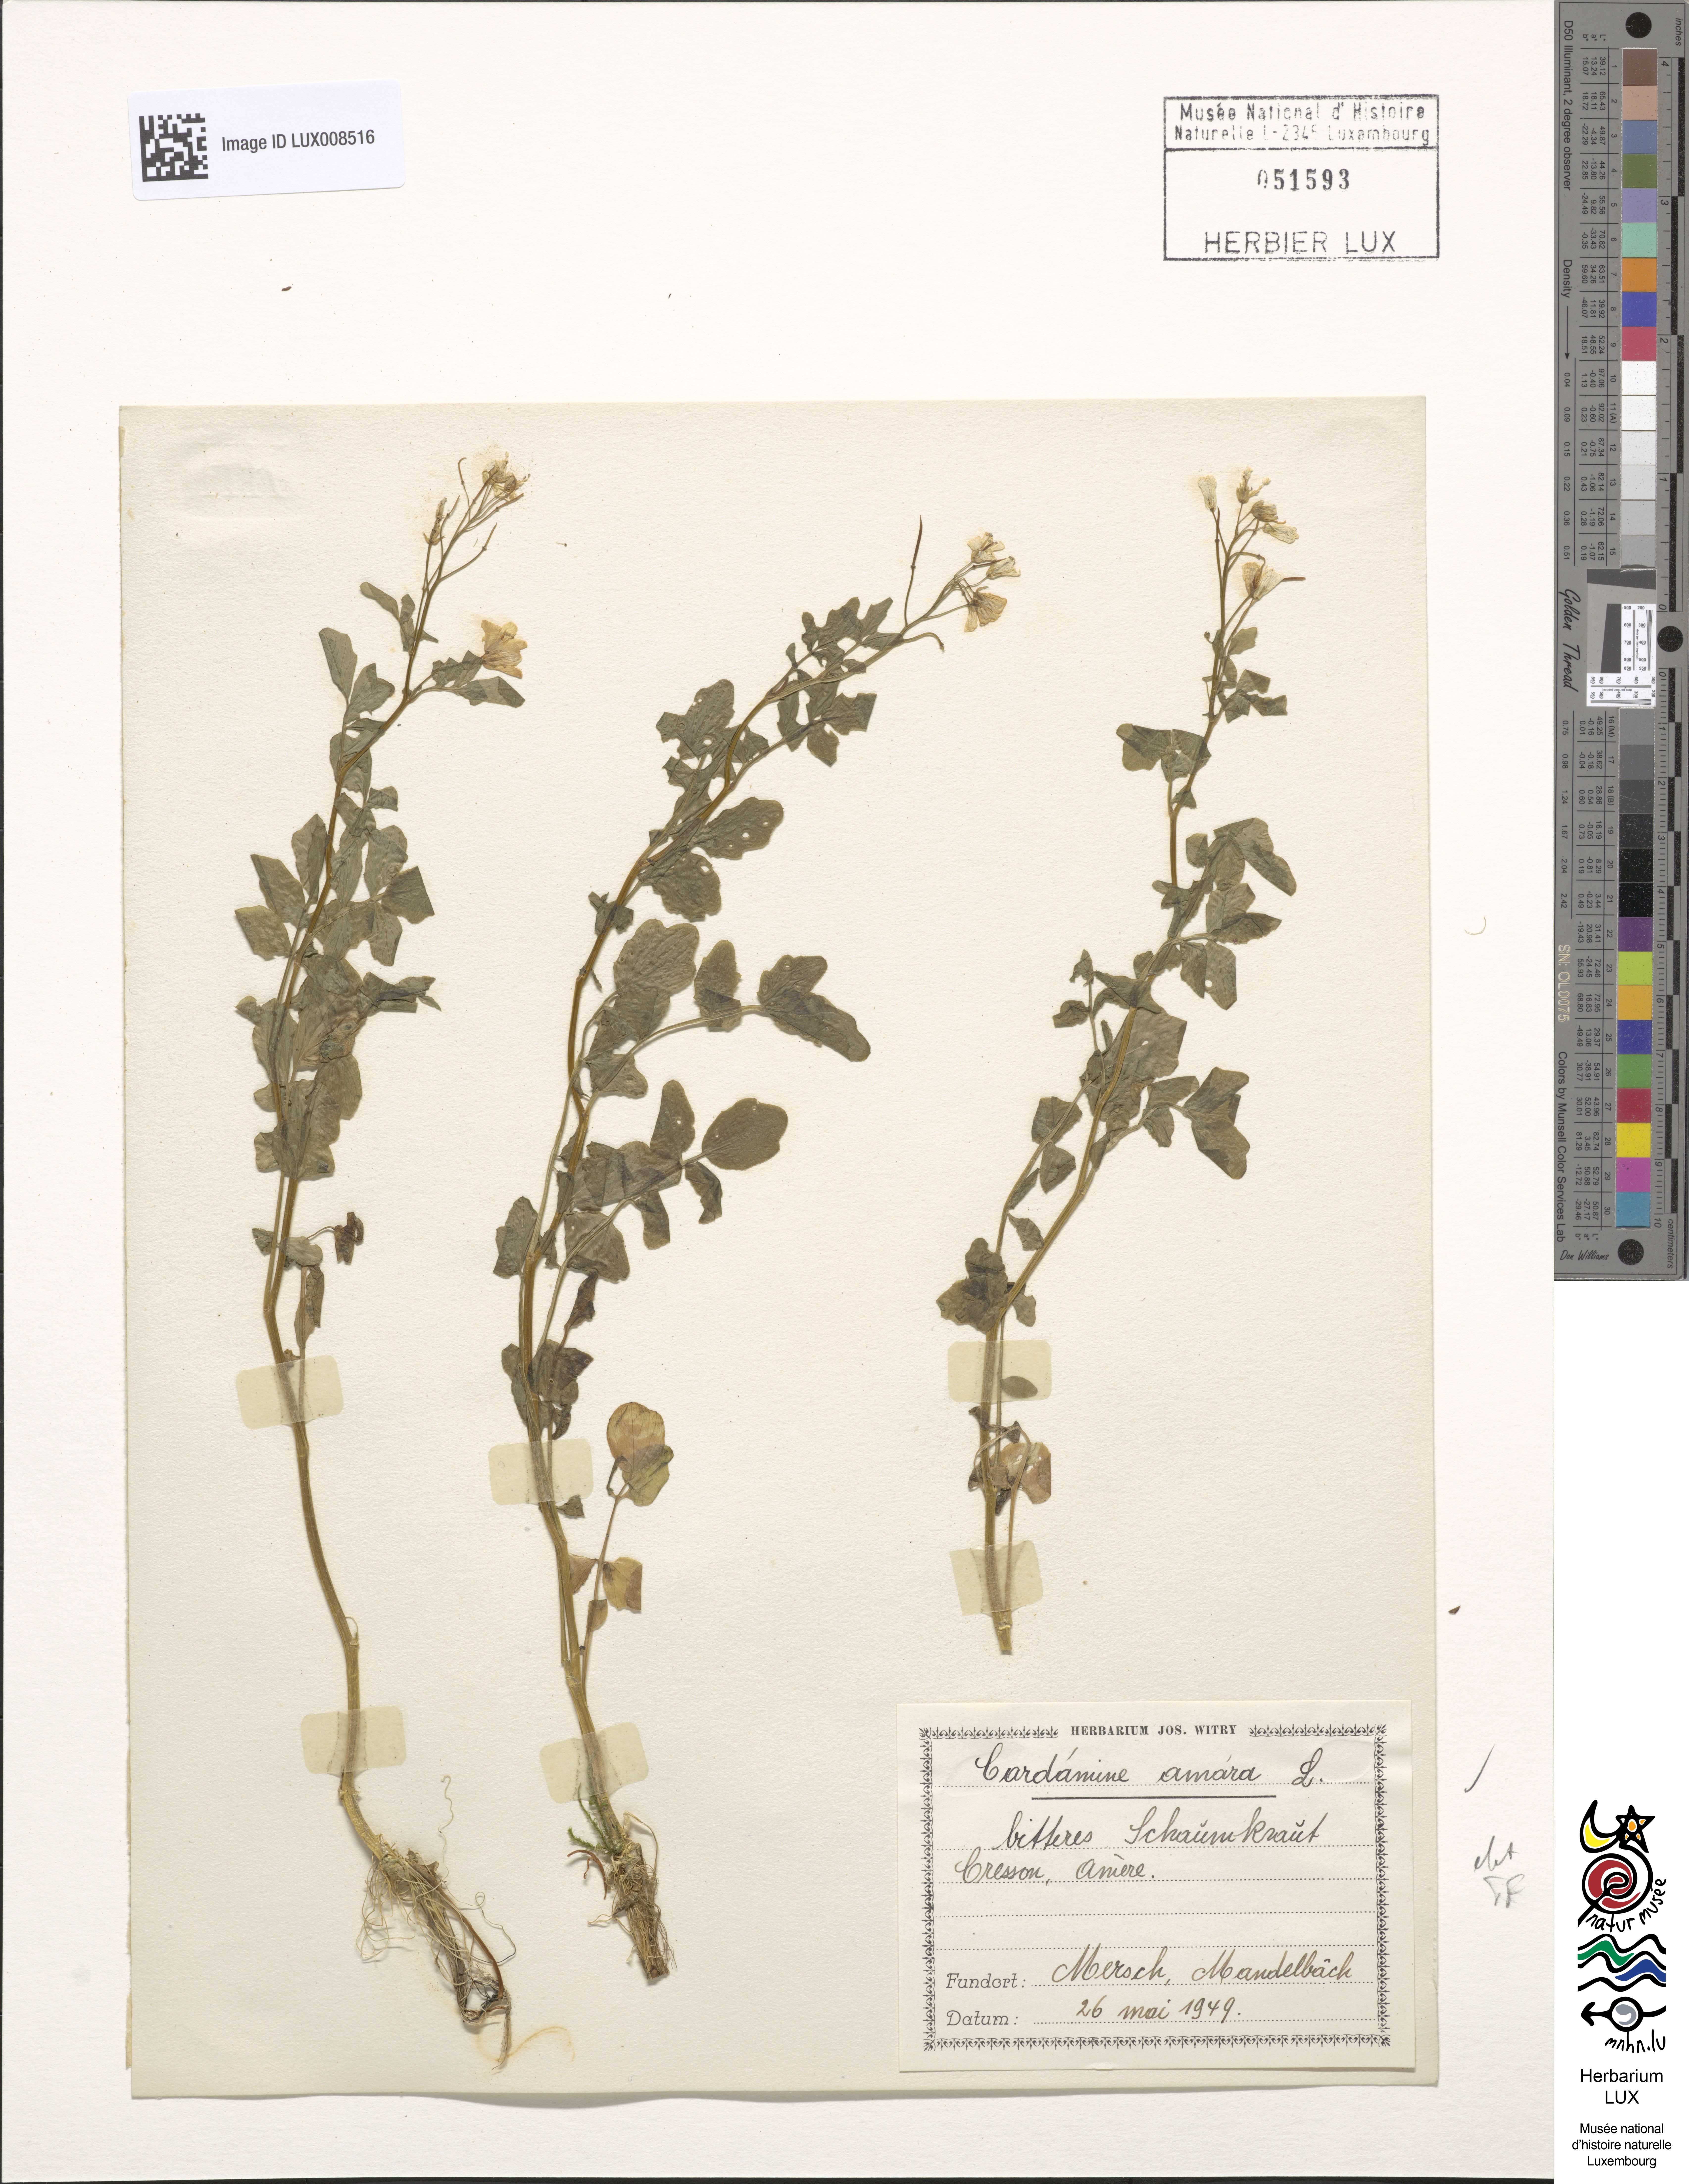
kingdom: Plantae
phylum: Tracheophyta
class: Magnoliopsida
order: Brassicales
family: Brassicaceae
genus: Cardamine
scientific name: Cardamine amara
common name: Large bitter-cress
